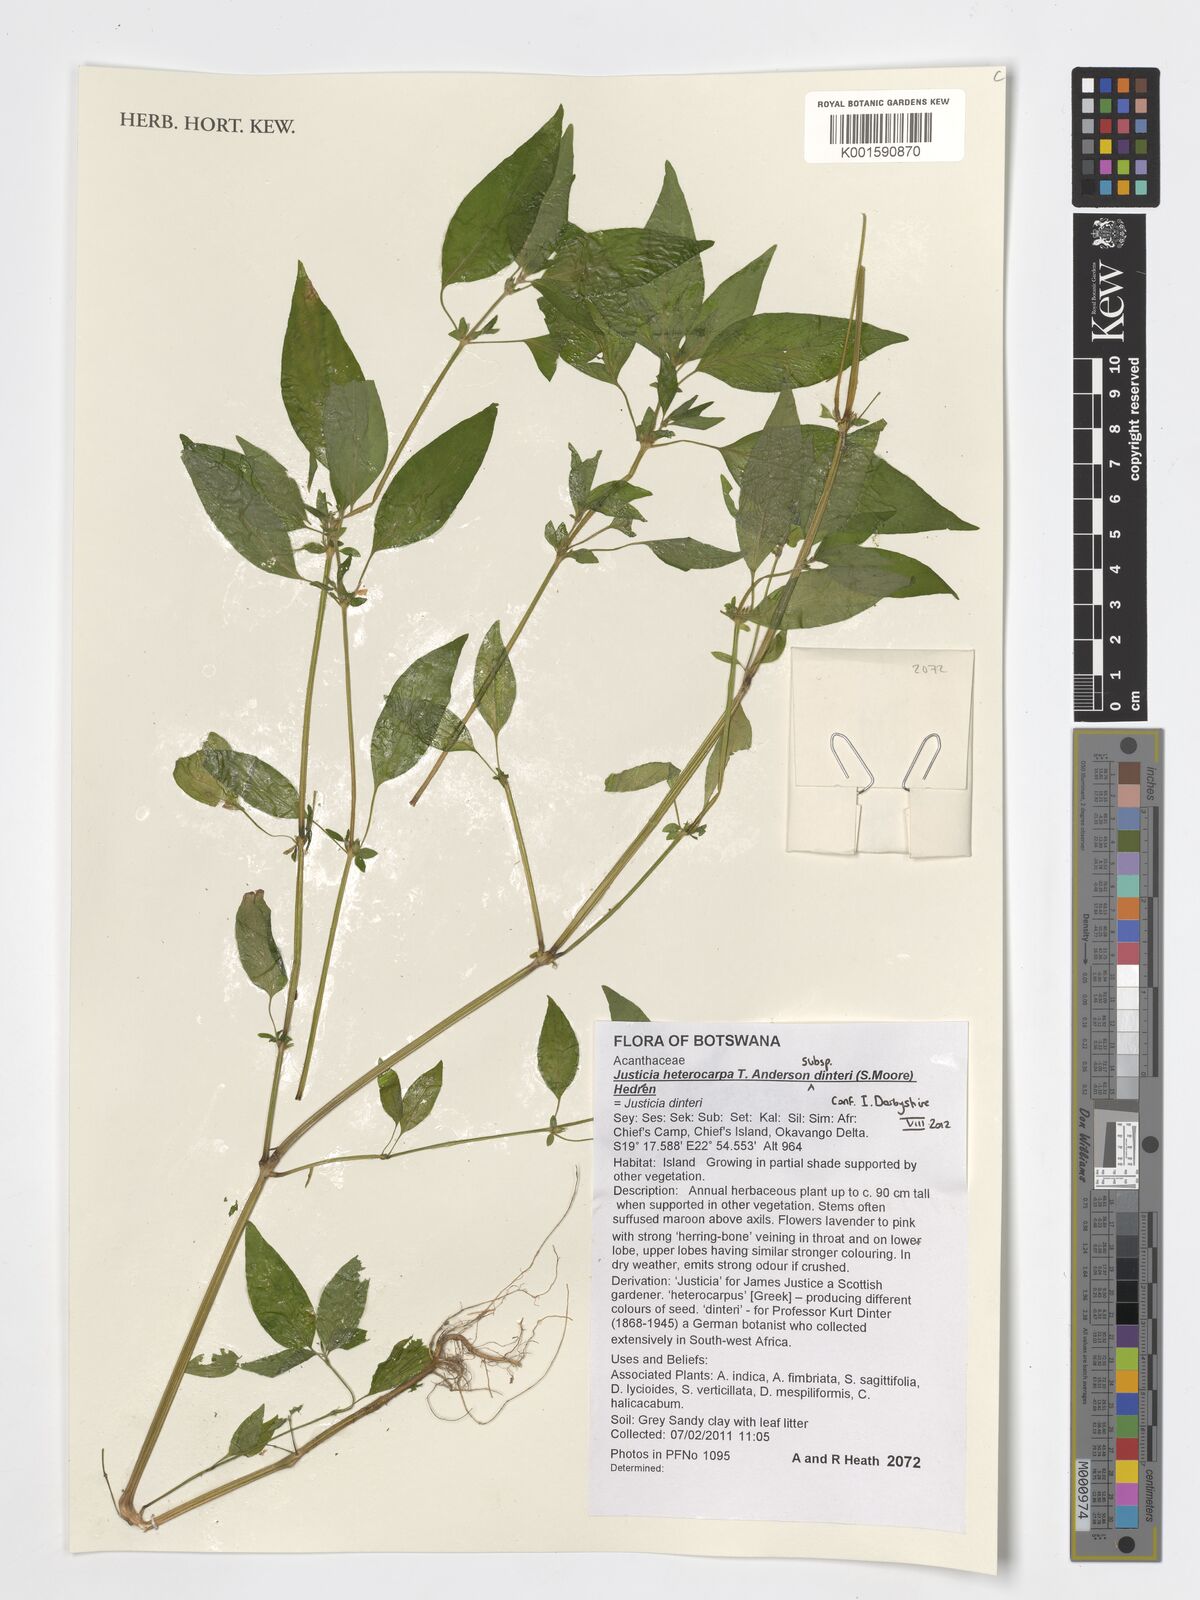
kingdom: Plantae
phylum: Tracheophyta
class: Magnoliopsida
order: Lamiales
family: Acanthaceae
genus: Justicia
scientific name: Justicia heterocarpa
